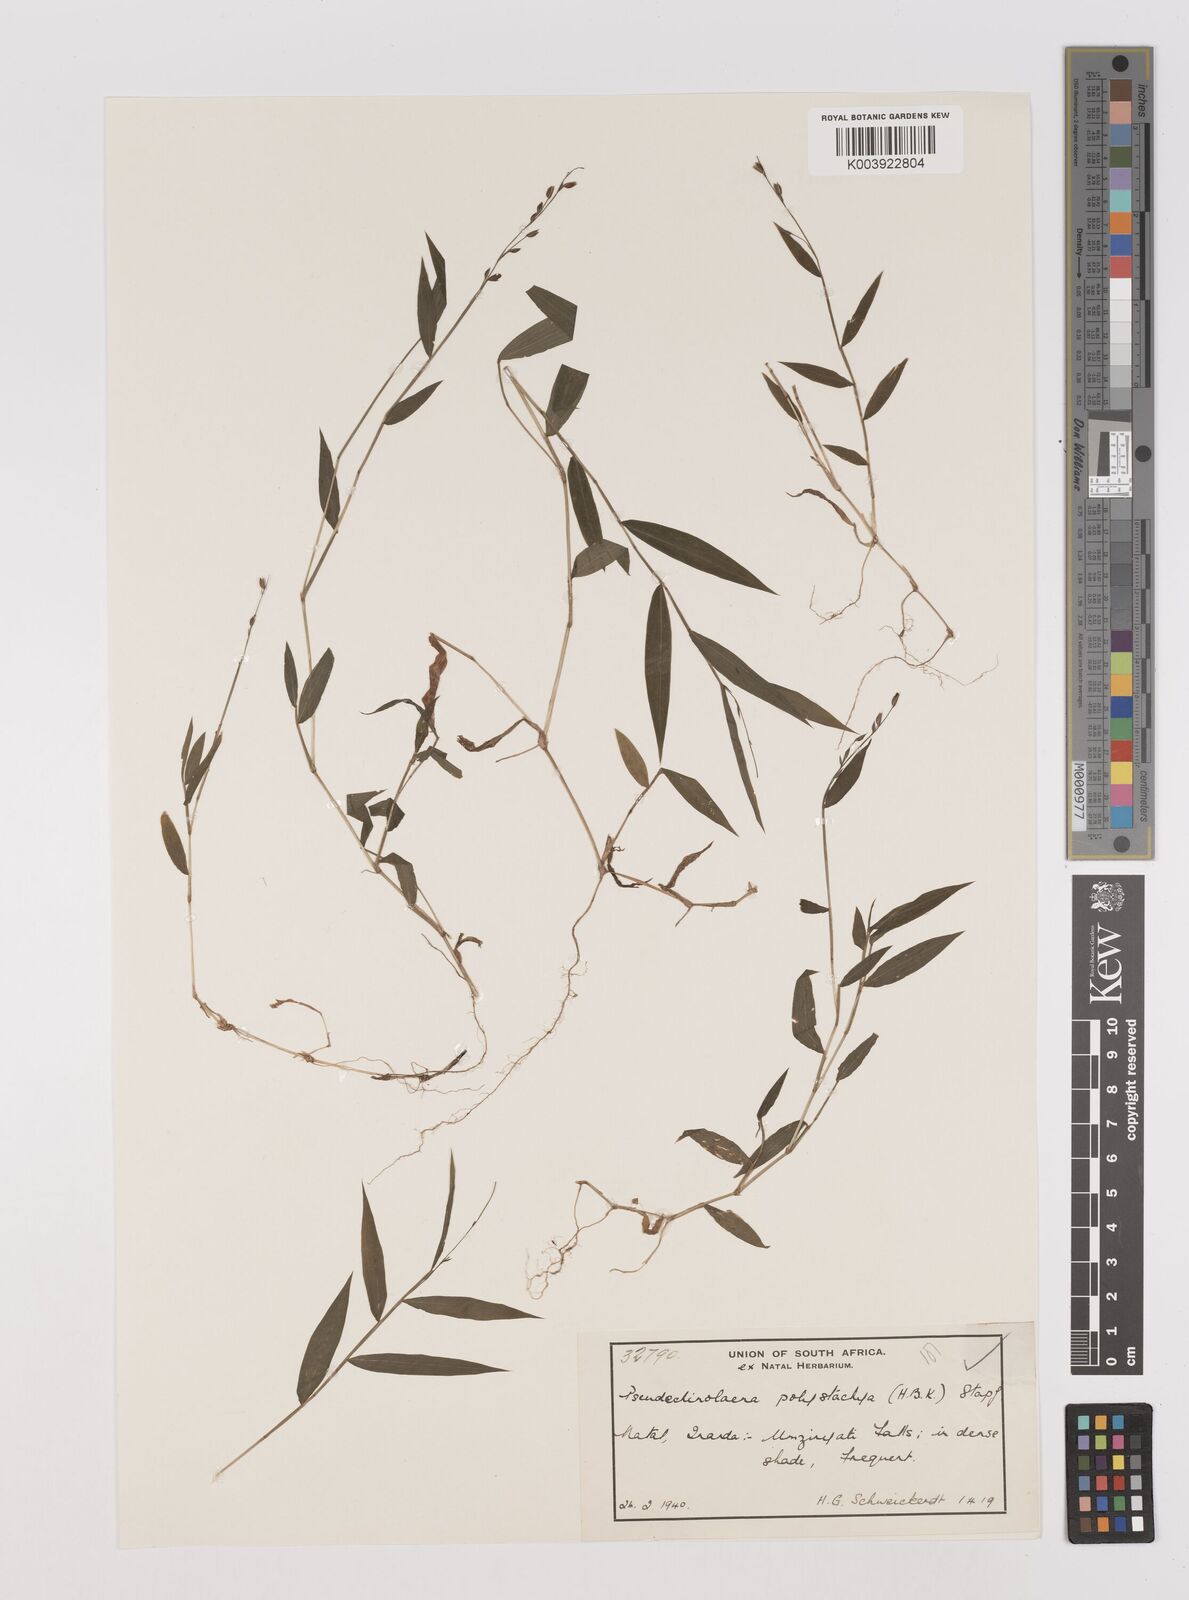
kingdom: Plantae
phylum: Tracheophyta
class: Liliopsida
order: Poales
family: Poaceae
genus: Pseudechinolaena
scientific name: Pseudechinolaena polystachya
